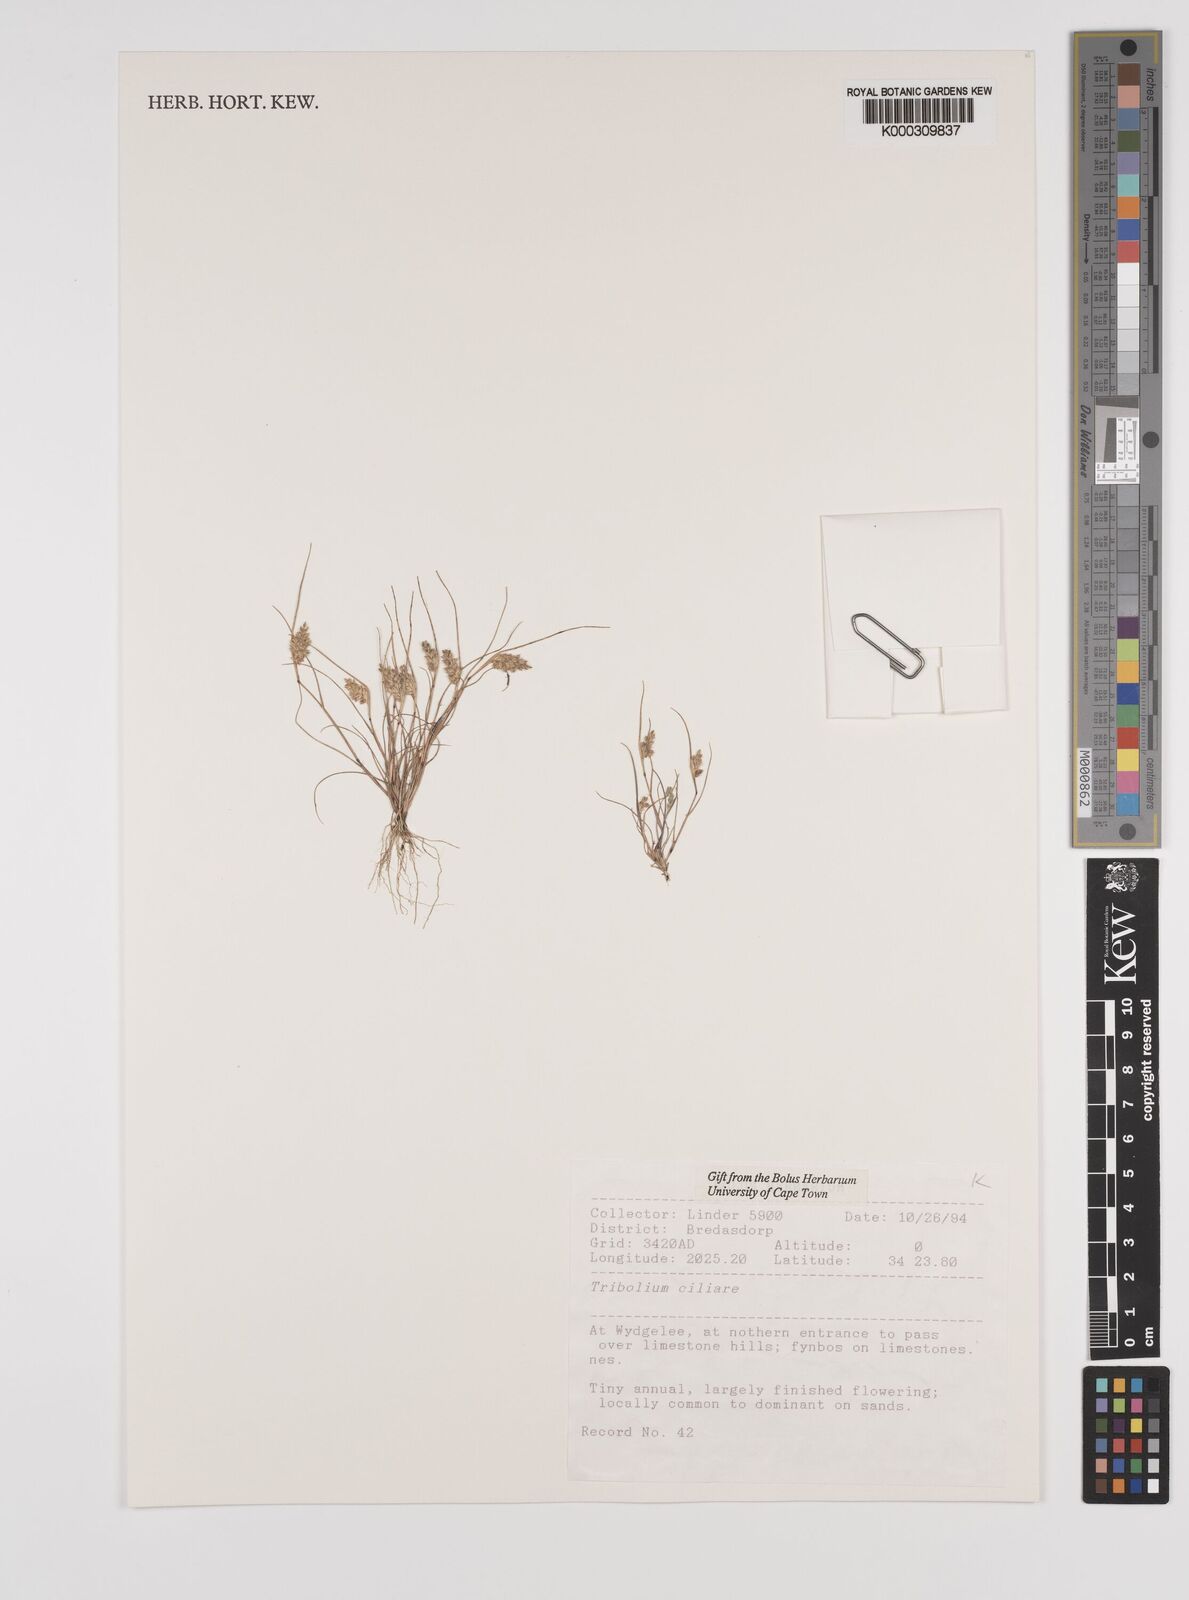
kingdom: Plantae
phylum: Tracheophyta
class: Liliopsida
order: Poales
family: Poaceae
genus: Tribolium
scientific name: Tribolium ciliare
